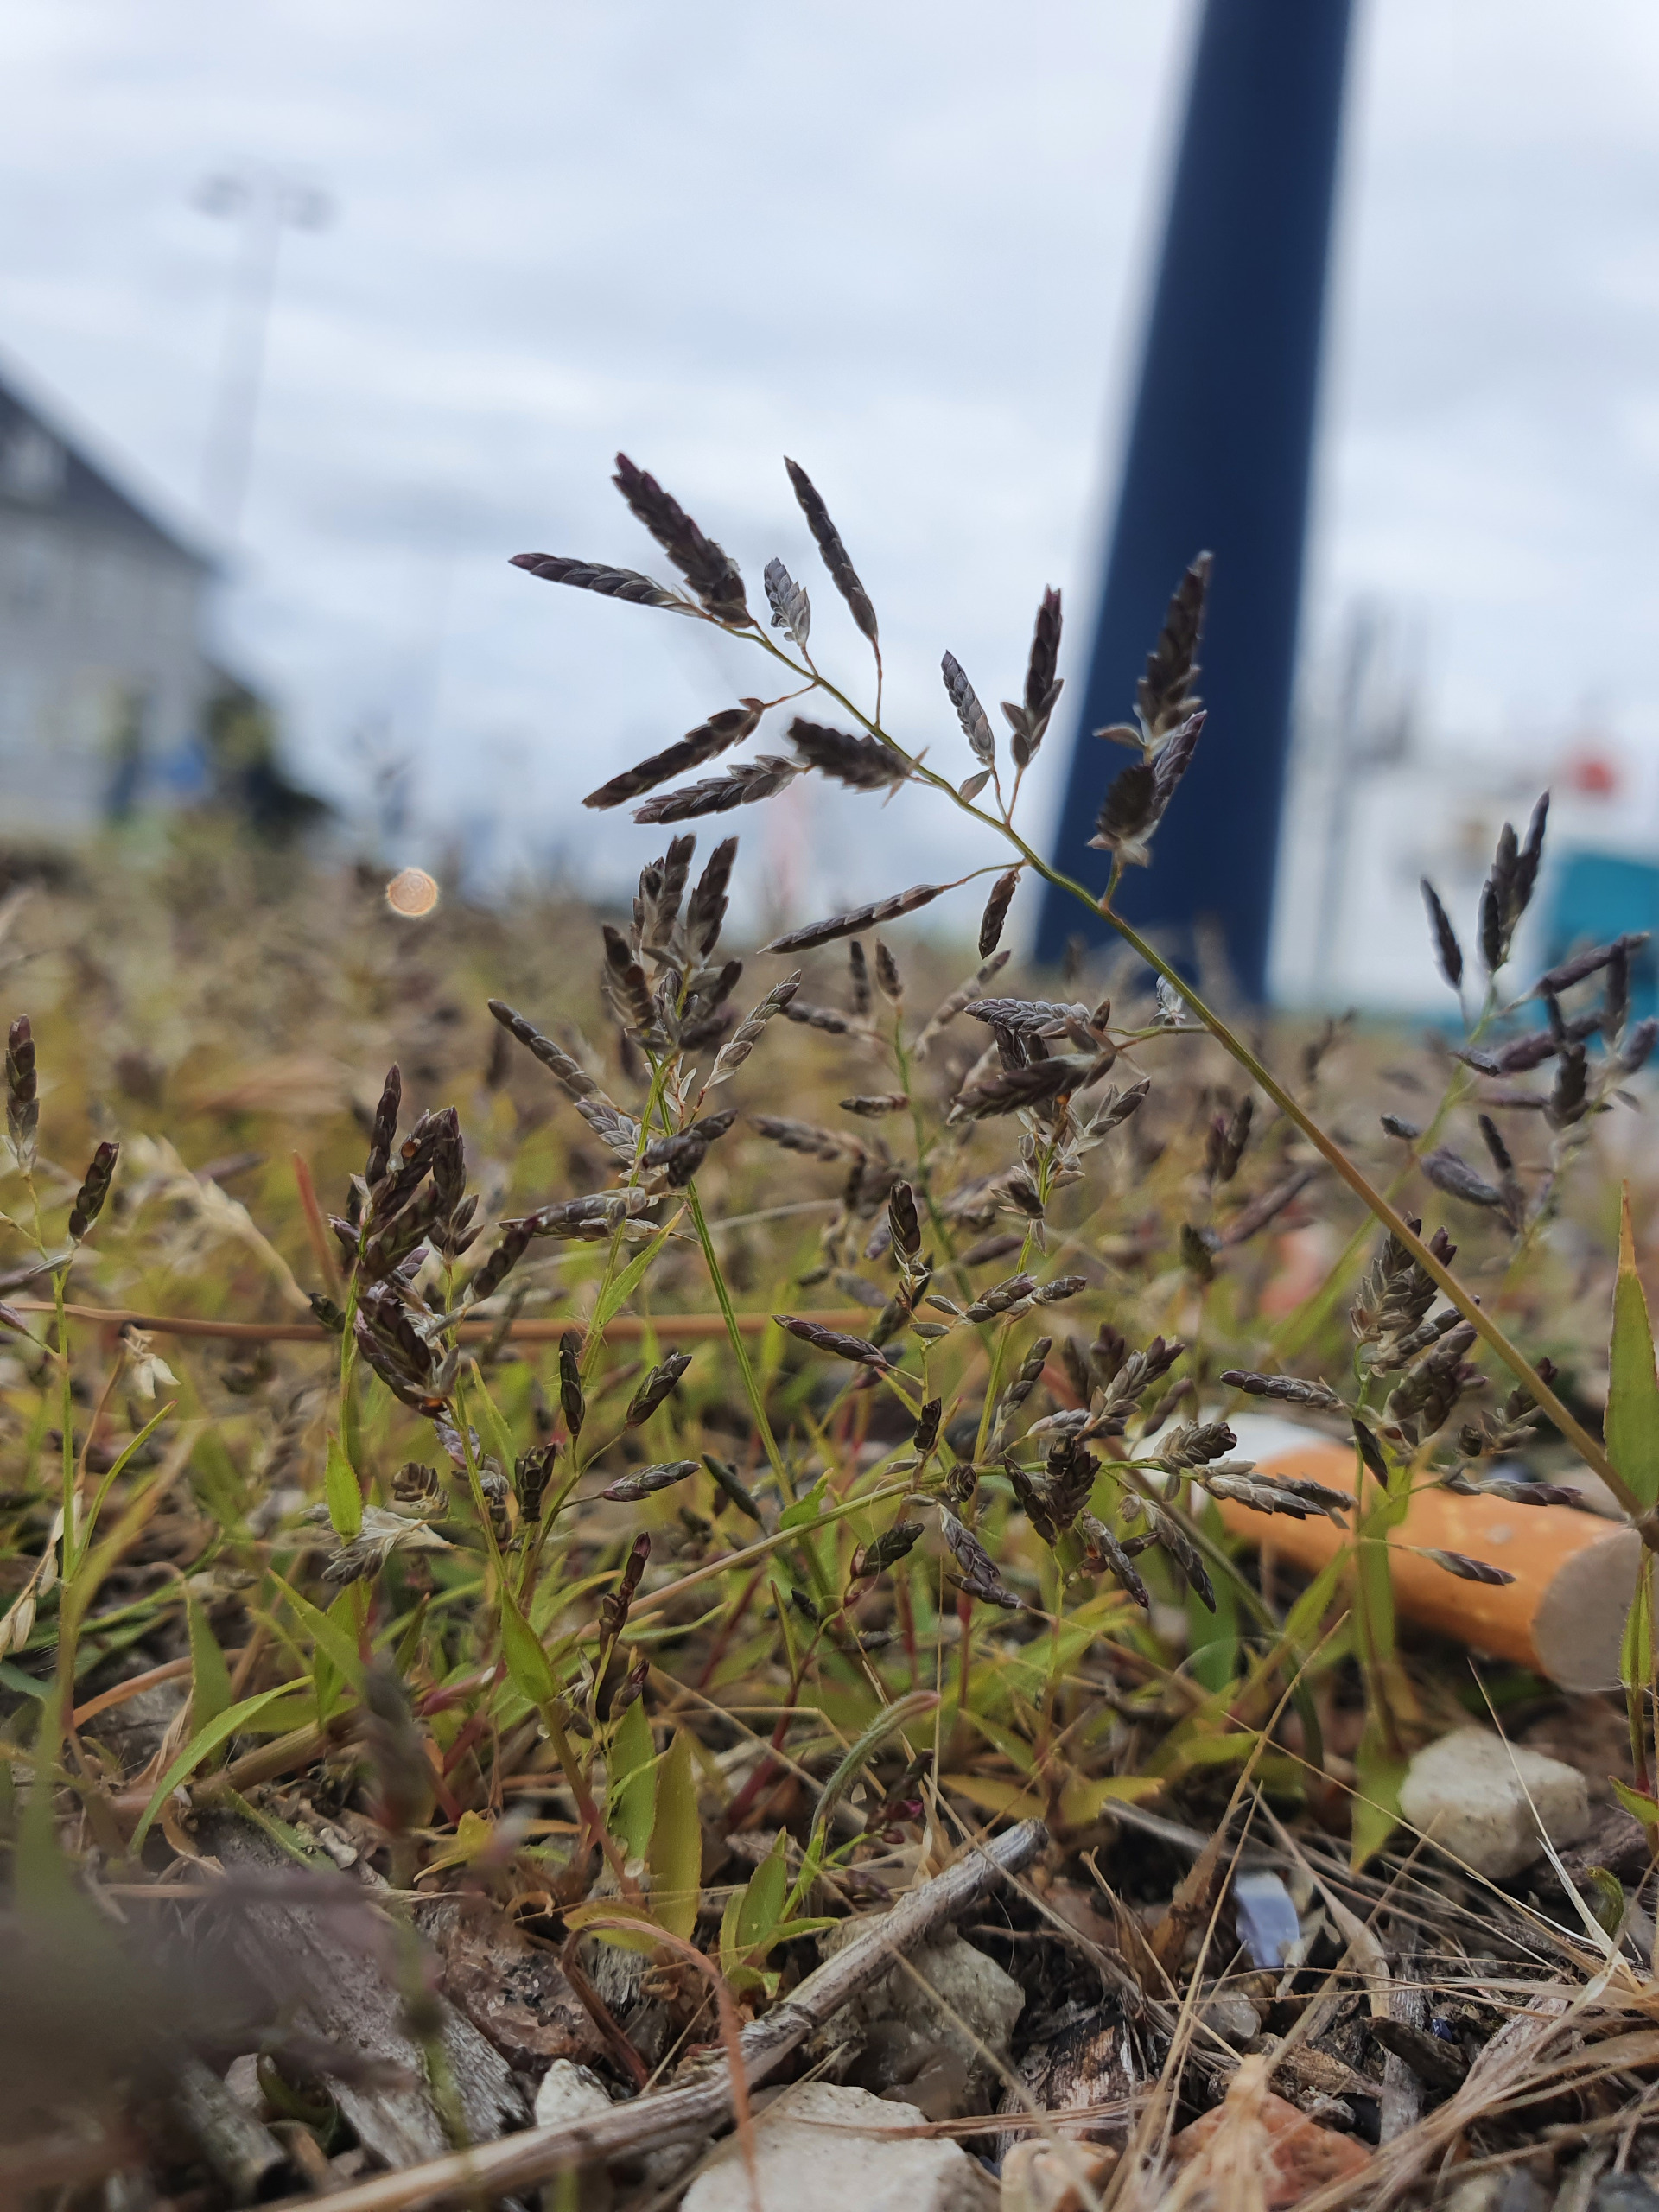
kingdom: Plantae
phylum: Tracheophyta
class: Liliopsida
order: Poales
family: Poaceae
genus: Eragrostis
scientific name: Eragrostis minor
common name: Liden kærlighedsgræs
